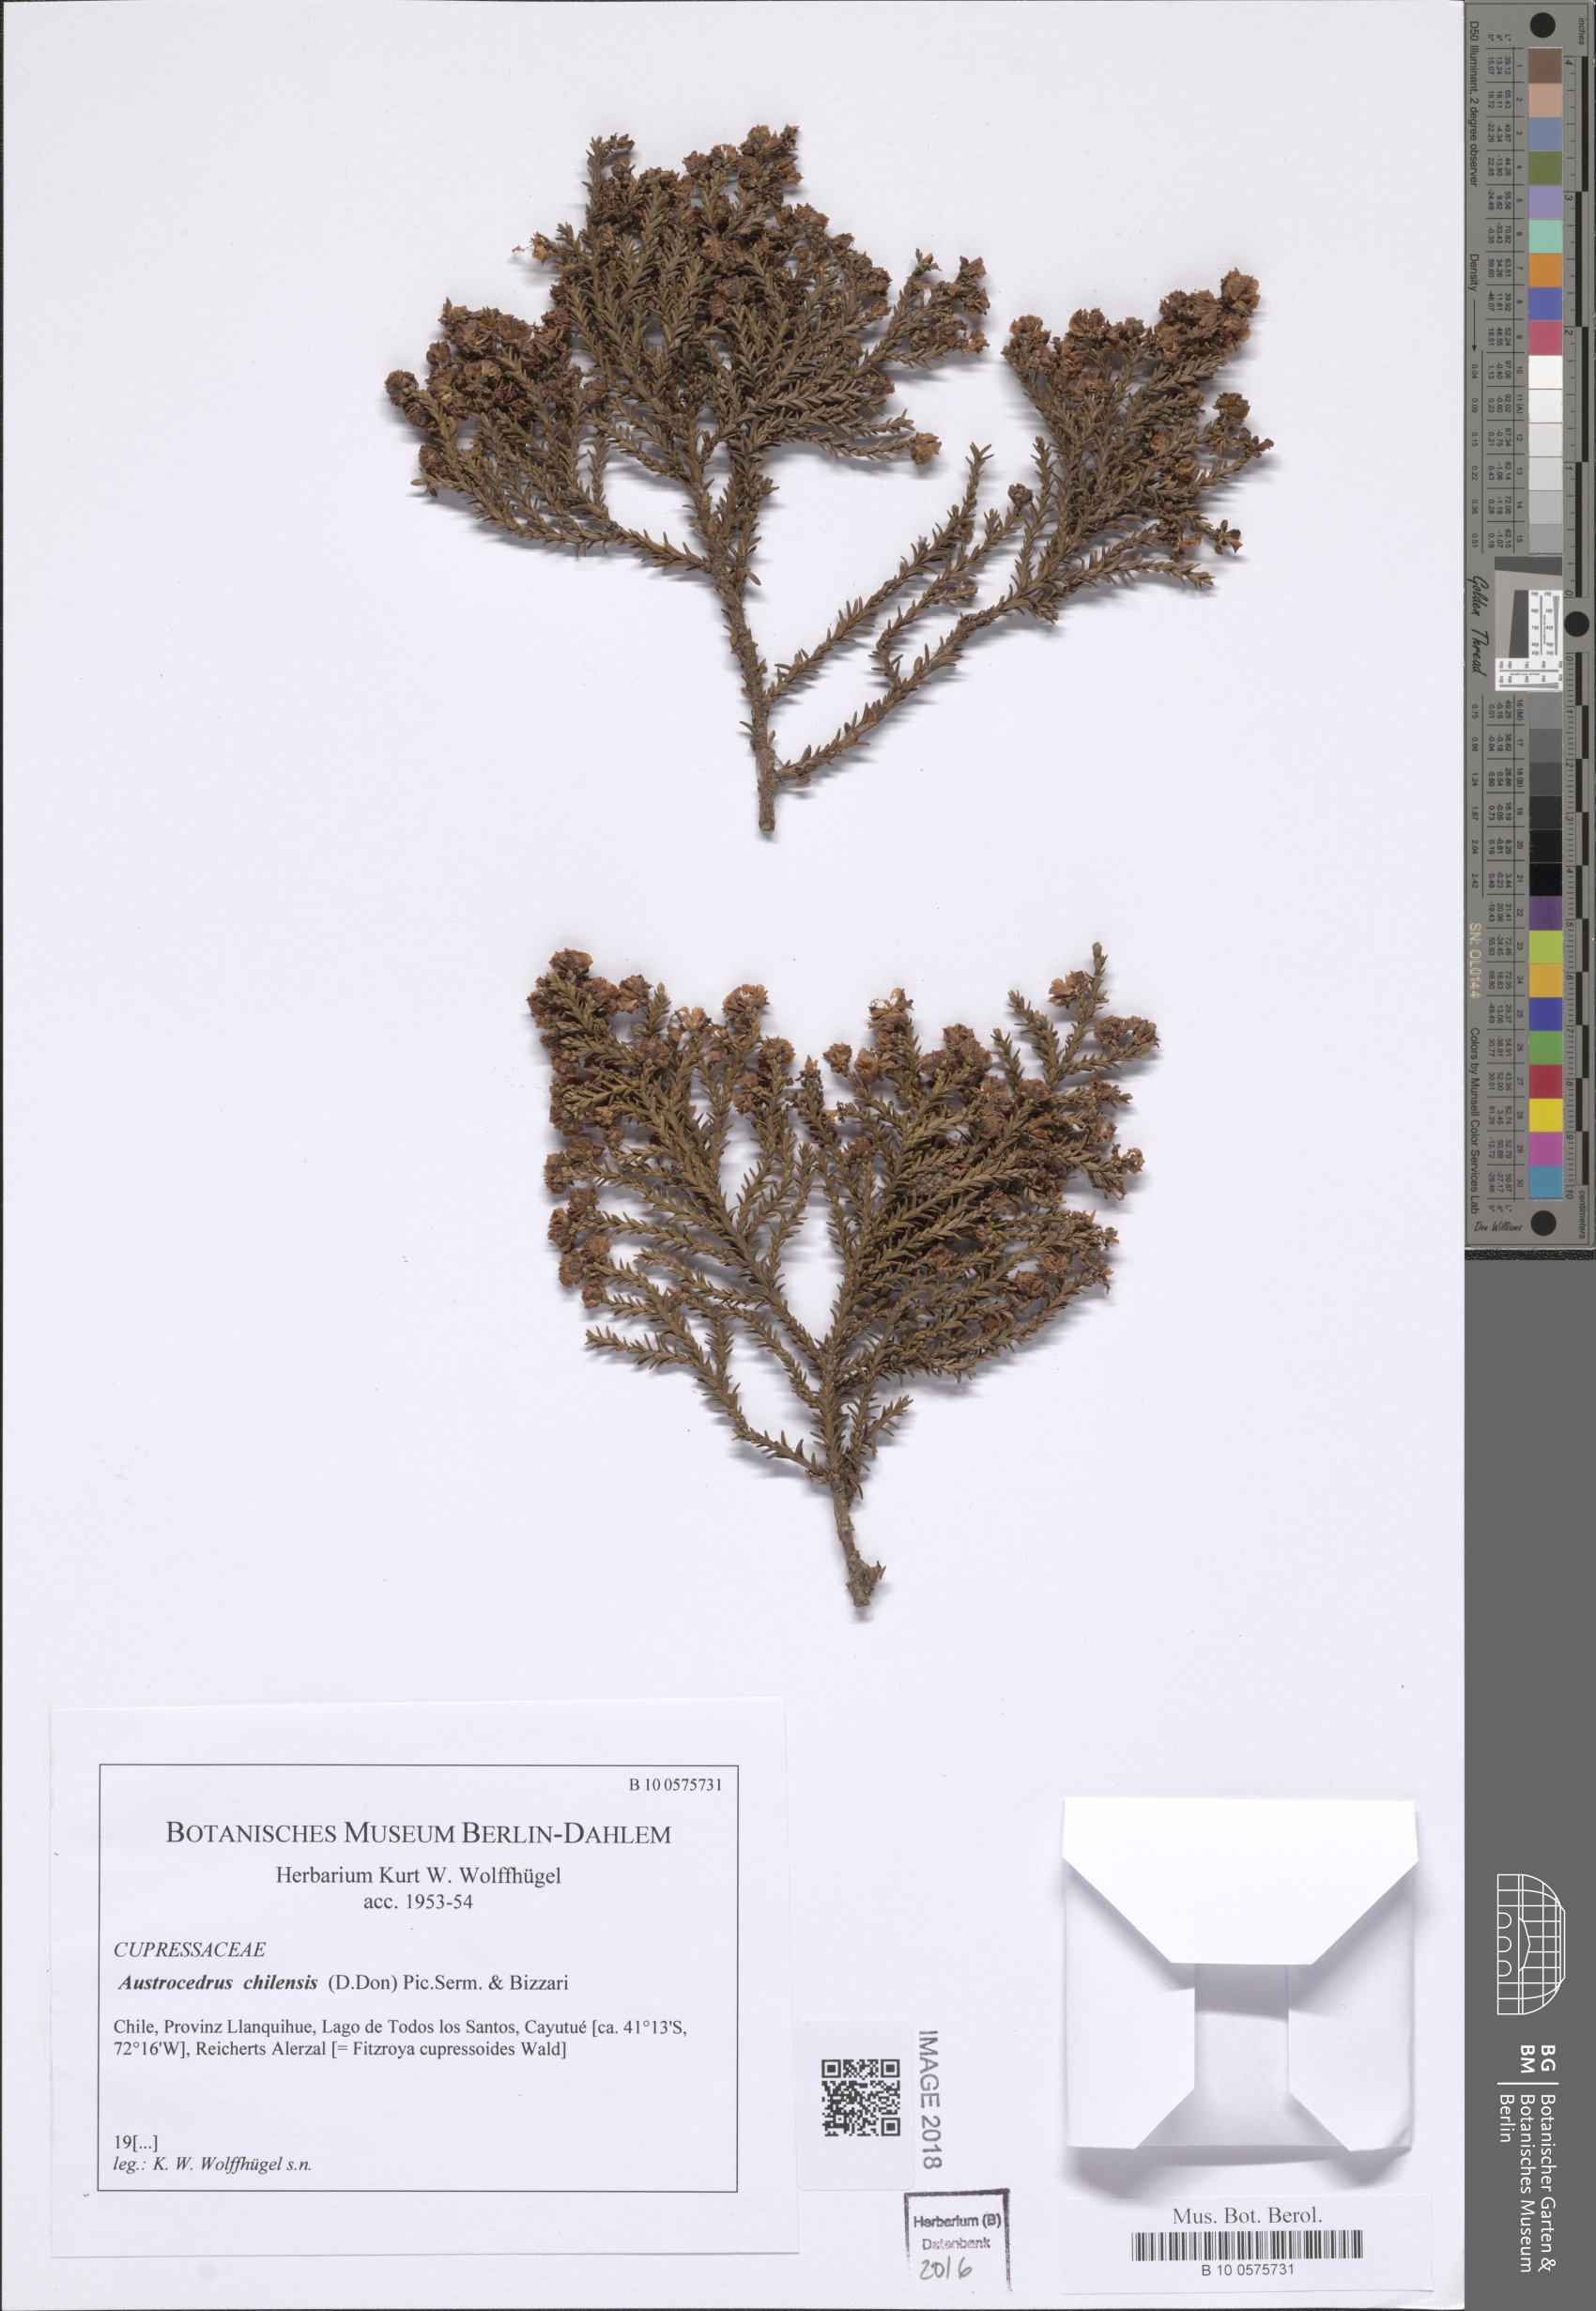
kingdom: Plantae
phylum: Tracheophyta
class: Pinopsida
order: Pinales
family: Cupressaceae
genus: Austrocedrus
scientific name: Austrocedrus chilensis
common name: Chilean incense-cedar
